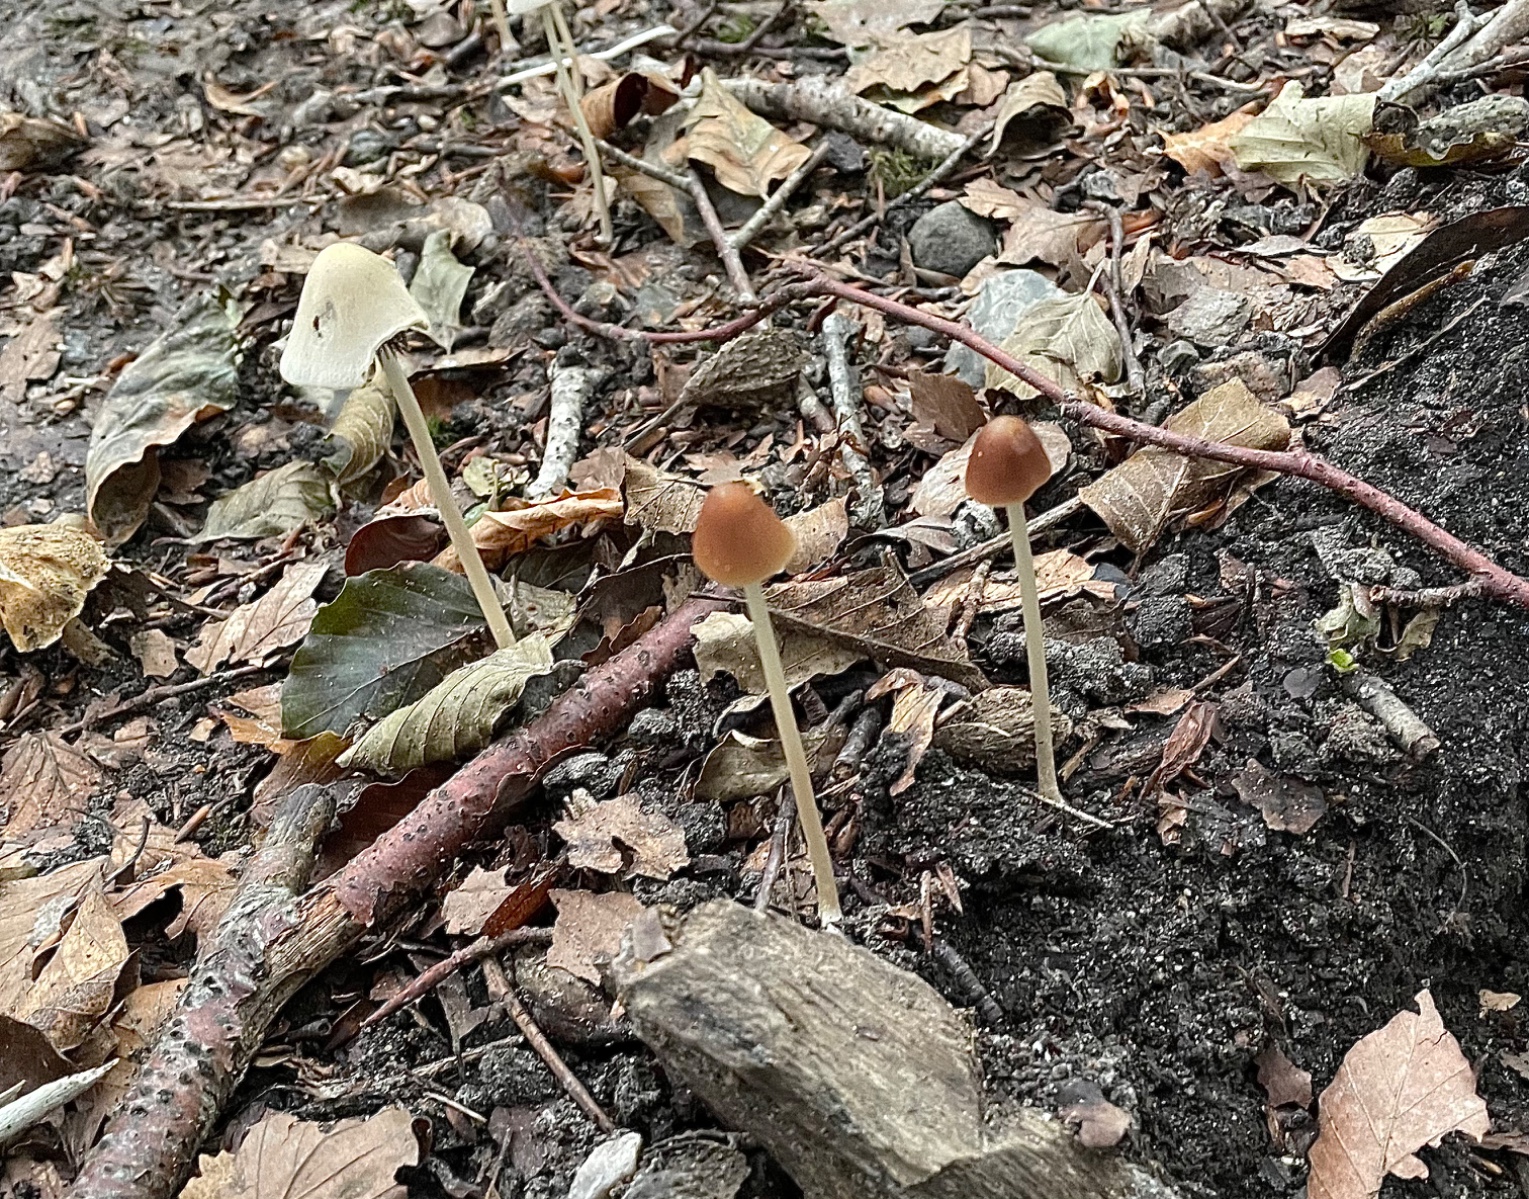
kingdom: Fungi
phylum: Basidiomycota
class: Agaricomycetes
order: Agaricales
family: Psathyrellaceae
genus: Parasola
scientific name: Parasola conopilea
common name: kegle-hjulhat
